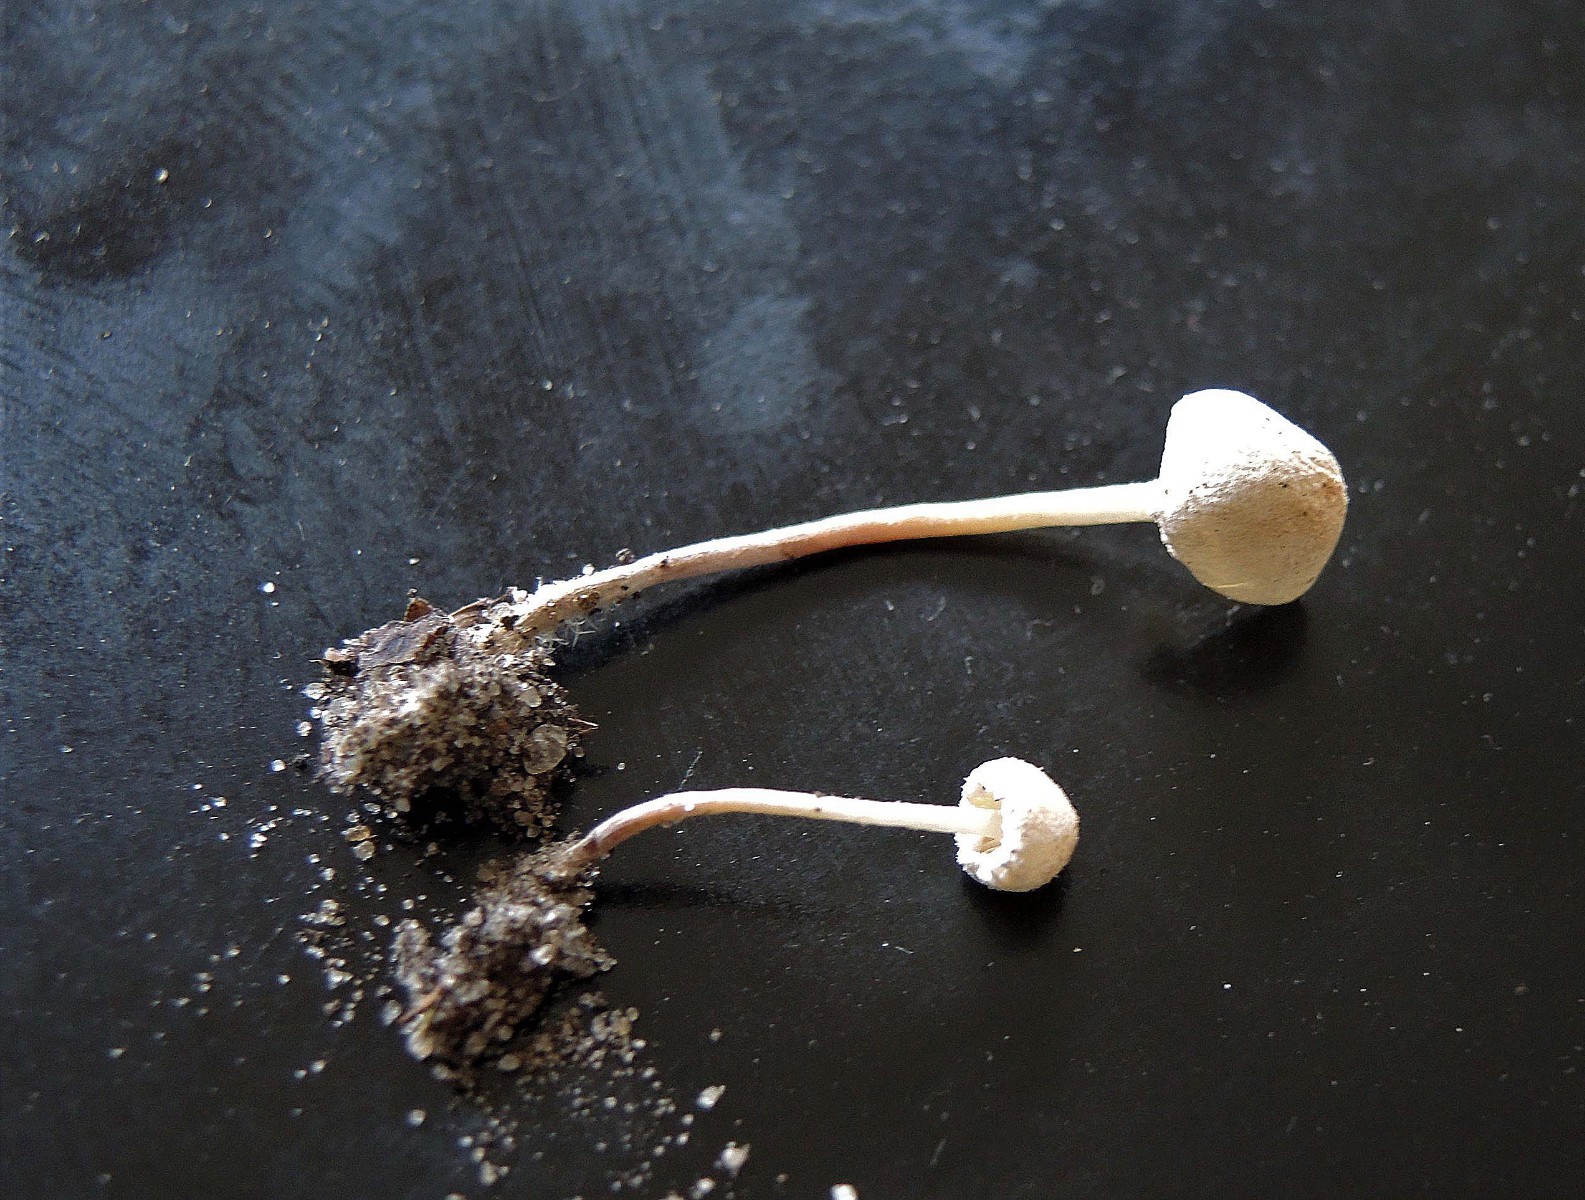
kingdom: Fungi
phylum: Basidiomycota
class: Agaricomycetes
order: Agaricales
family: Agaricaceae
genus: Cystolepiota
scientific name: Cystolepiota seminuda
